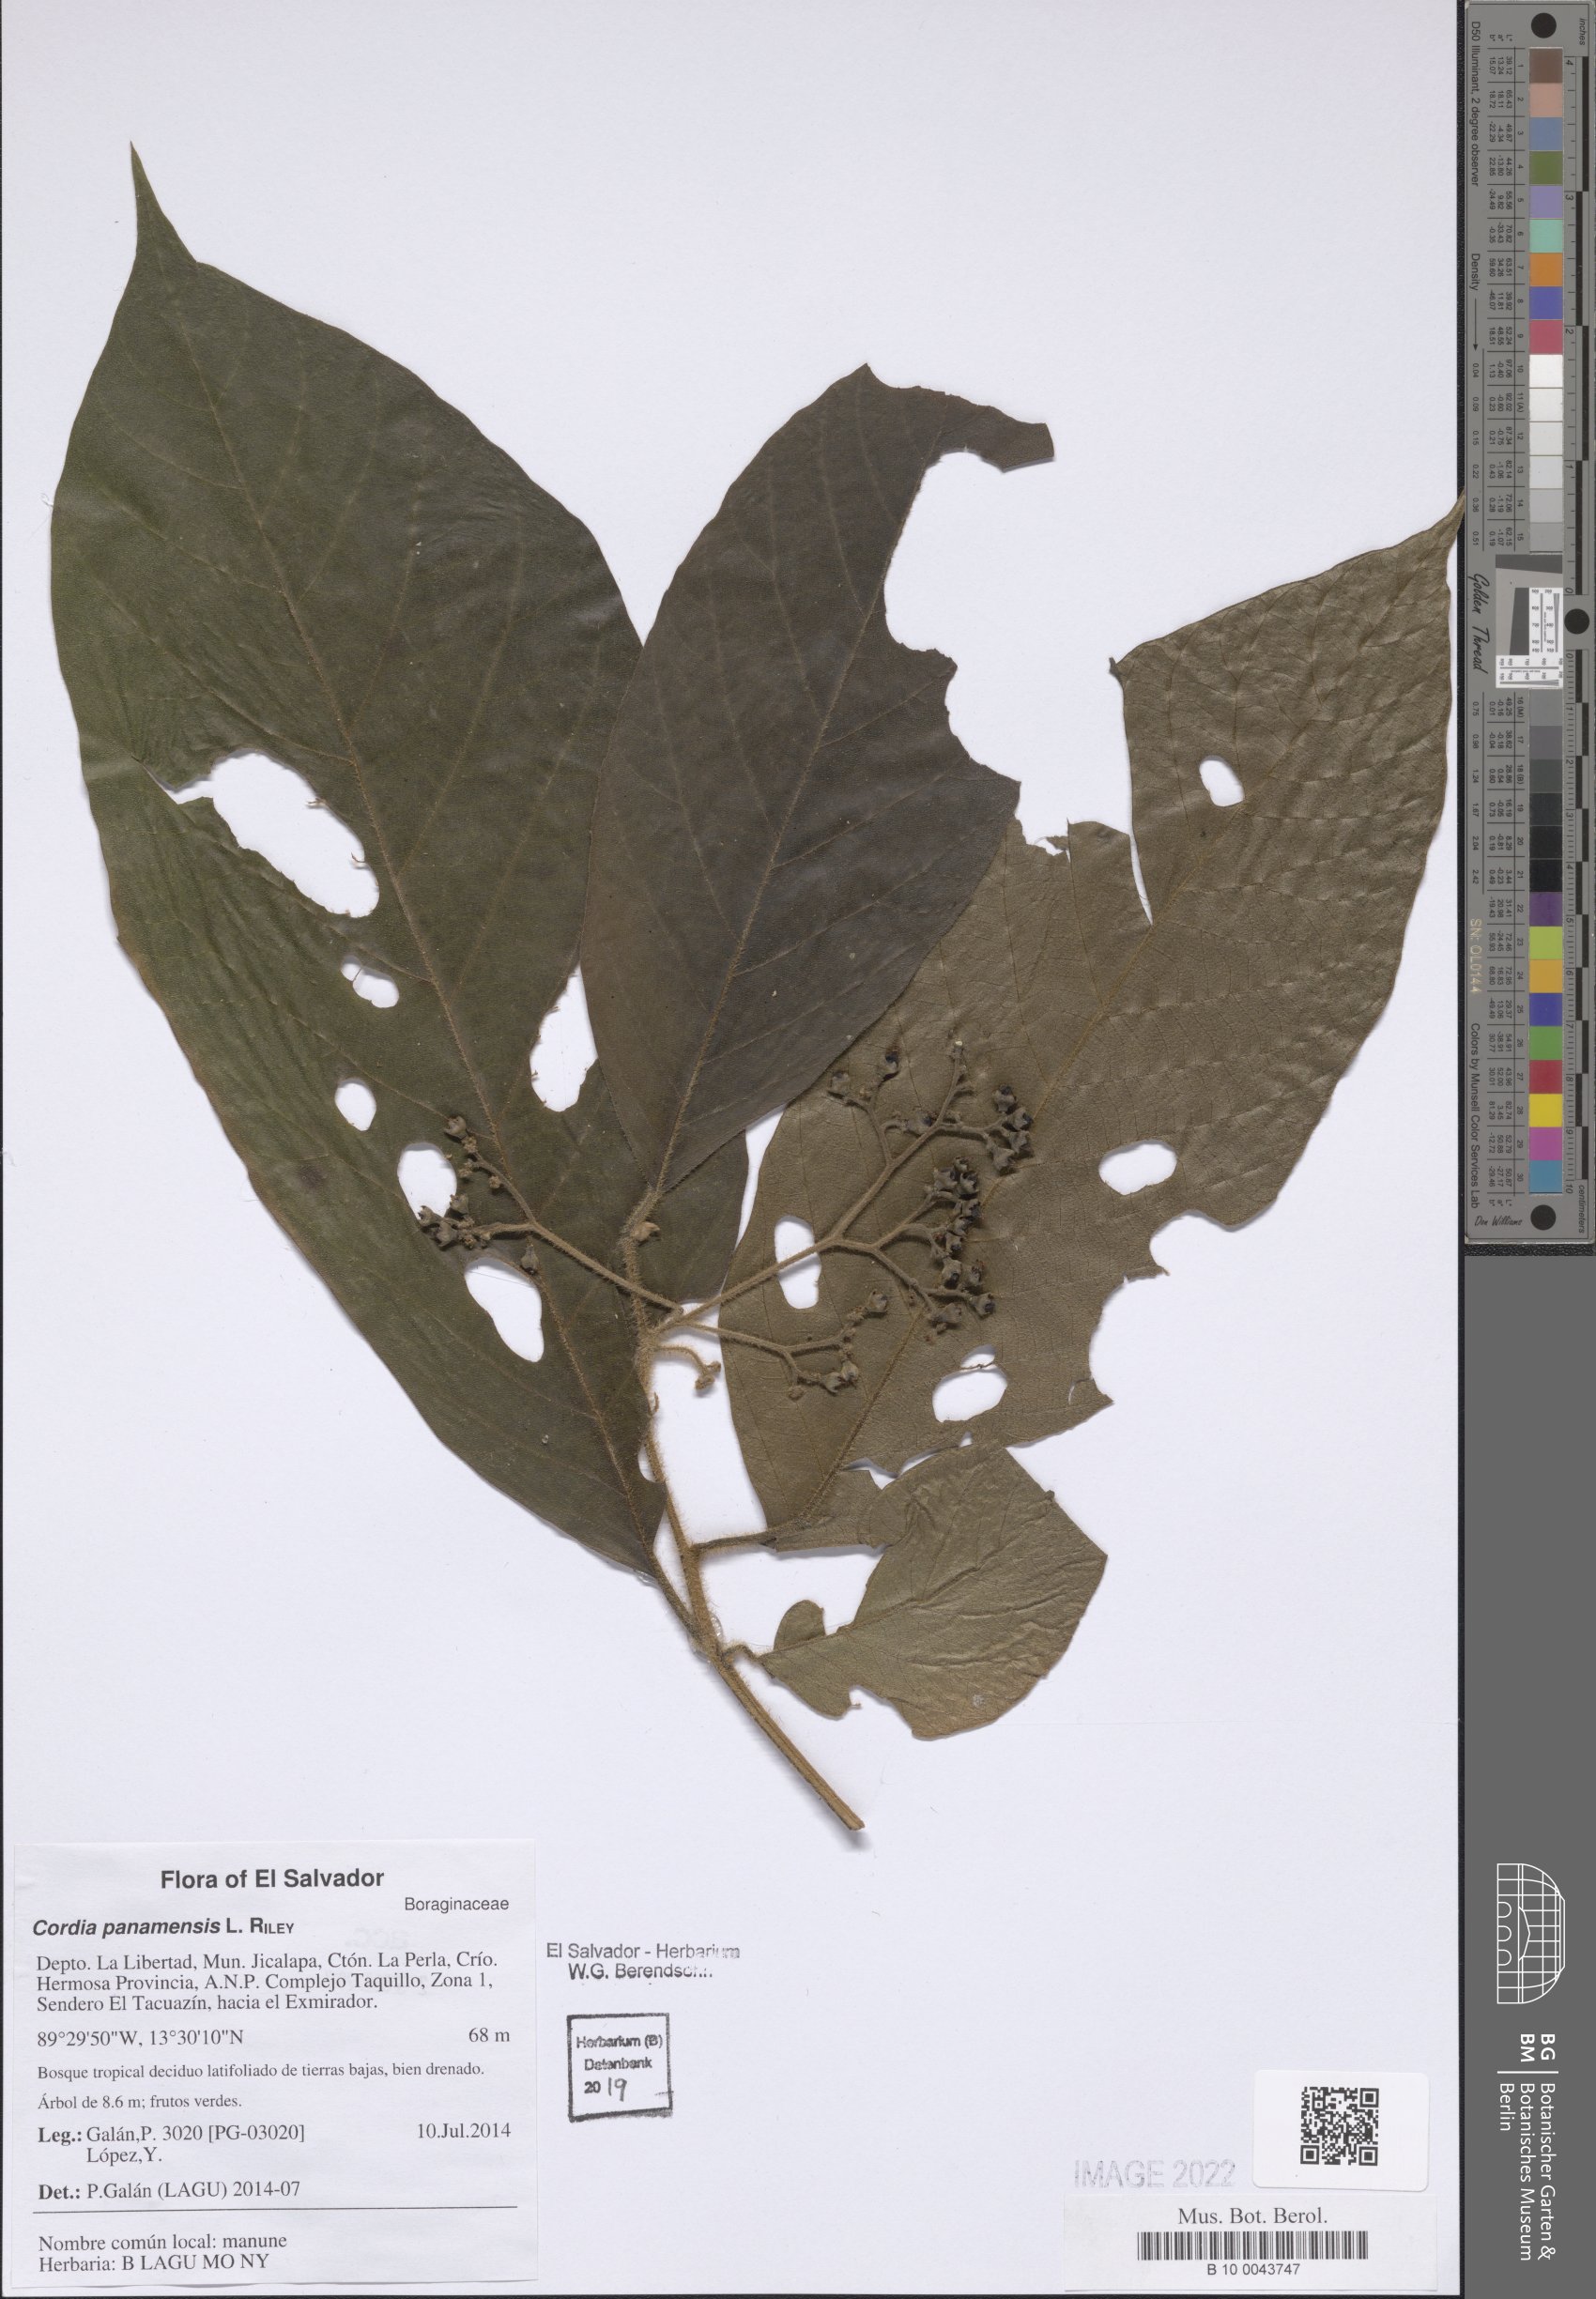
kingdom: Plantae
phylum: Tracheophyta
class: Magnoliopsida
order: Boraginales
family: Cordiaceae
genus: Cordia
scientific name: Cordia panamensis
